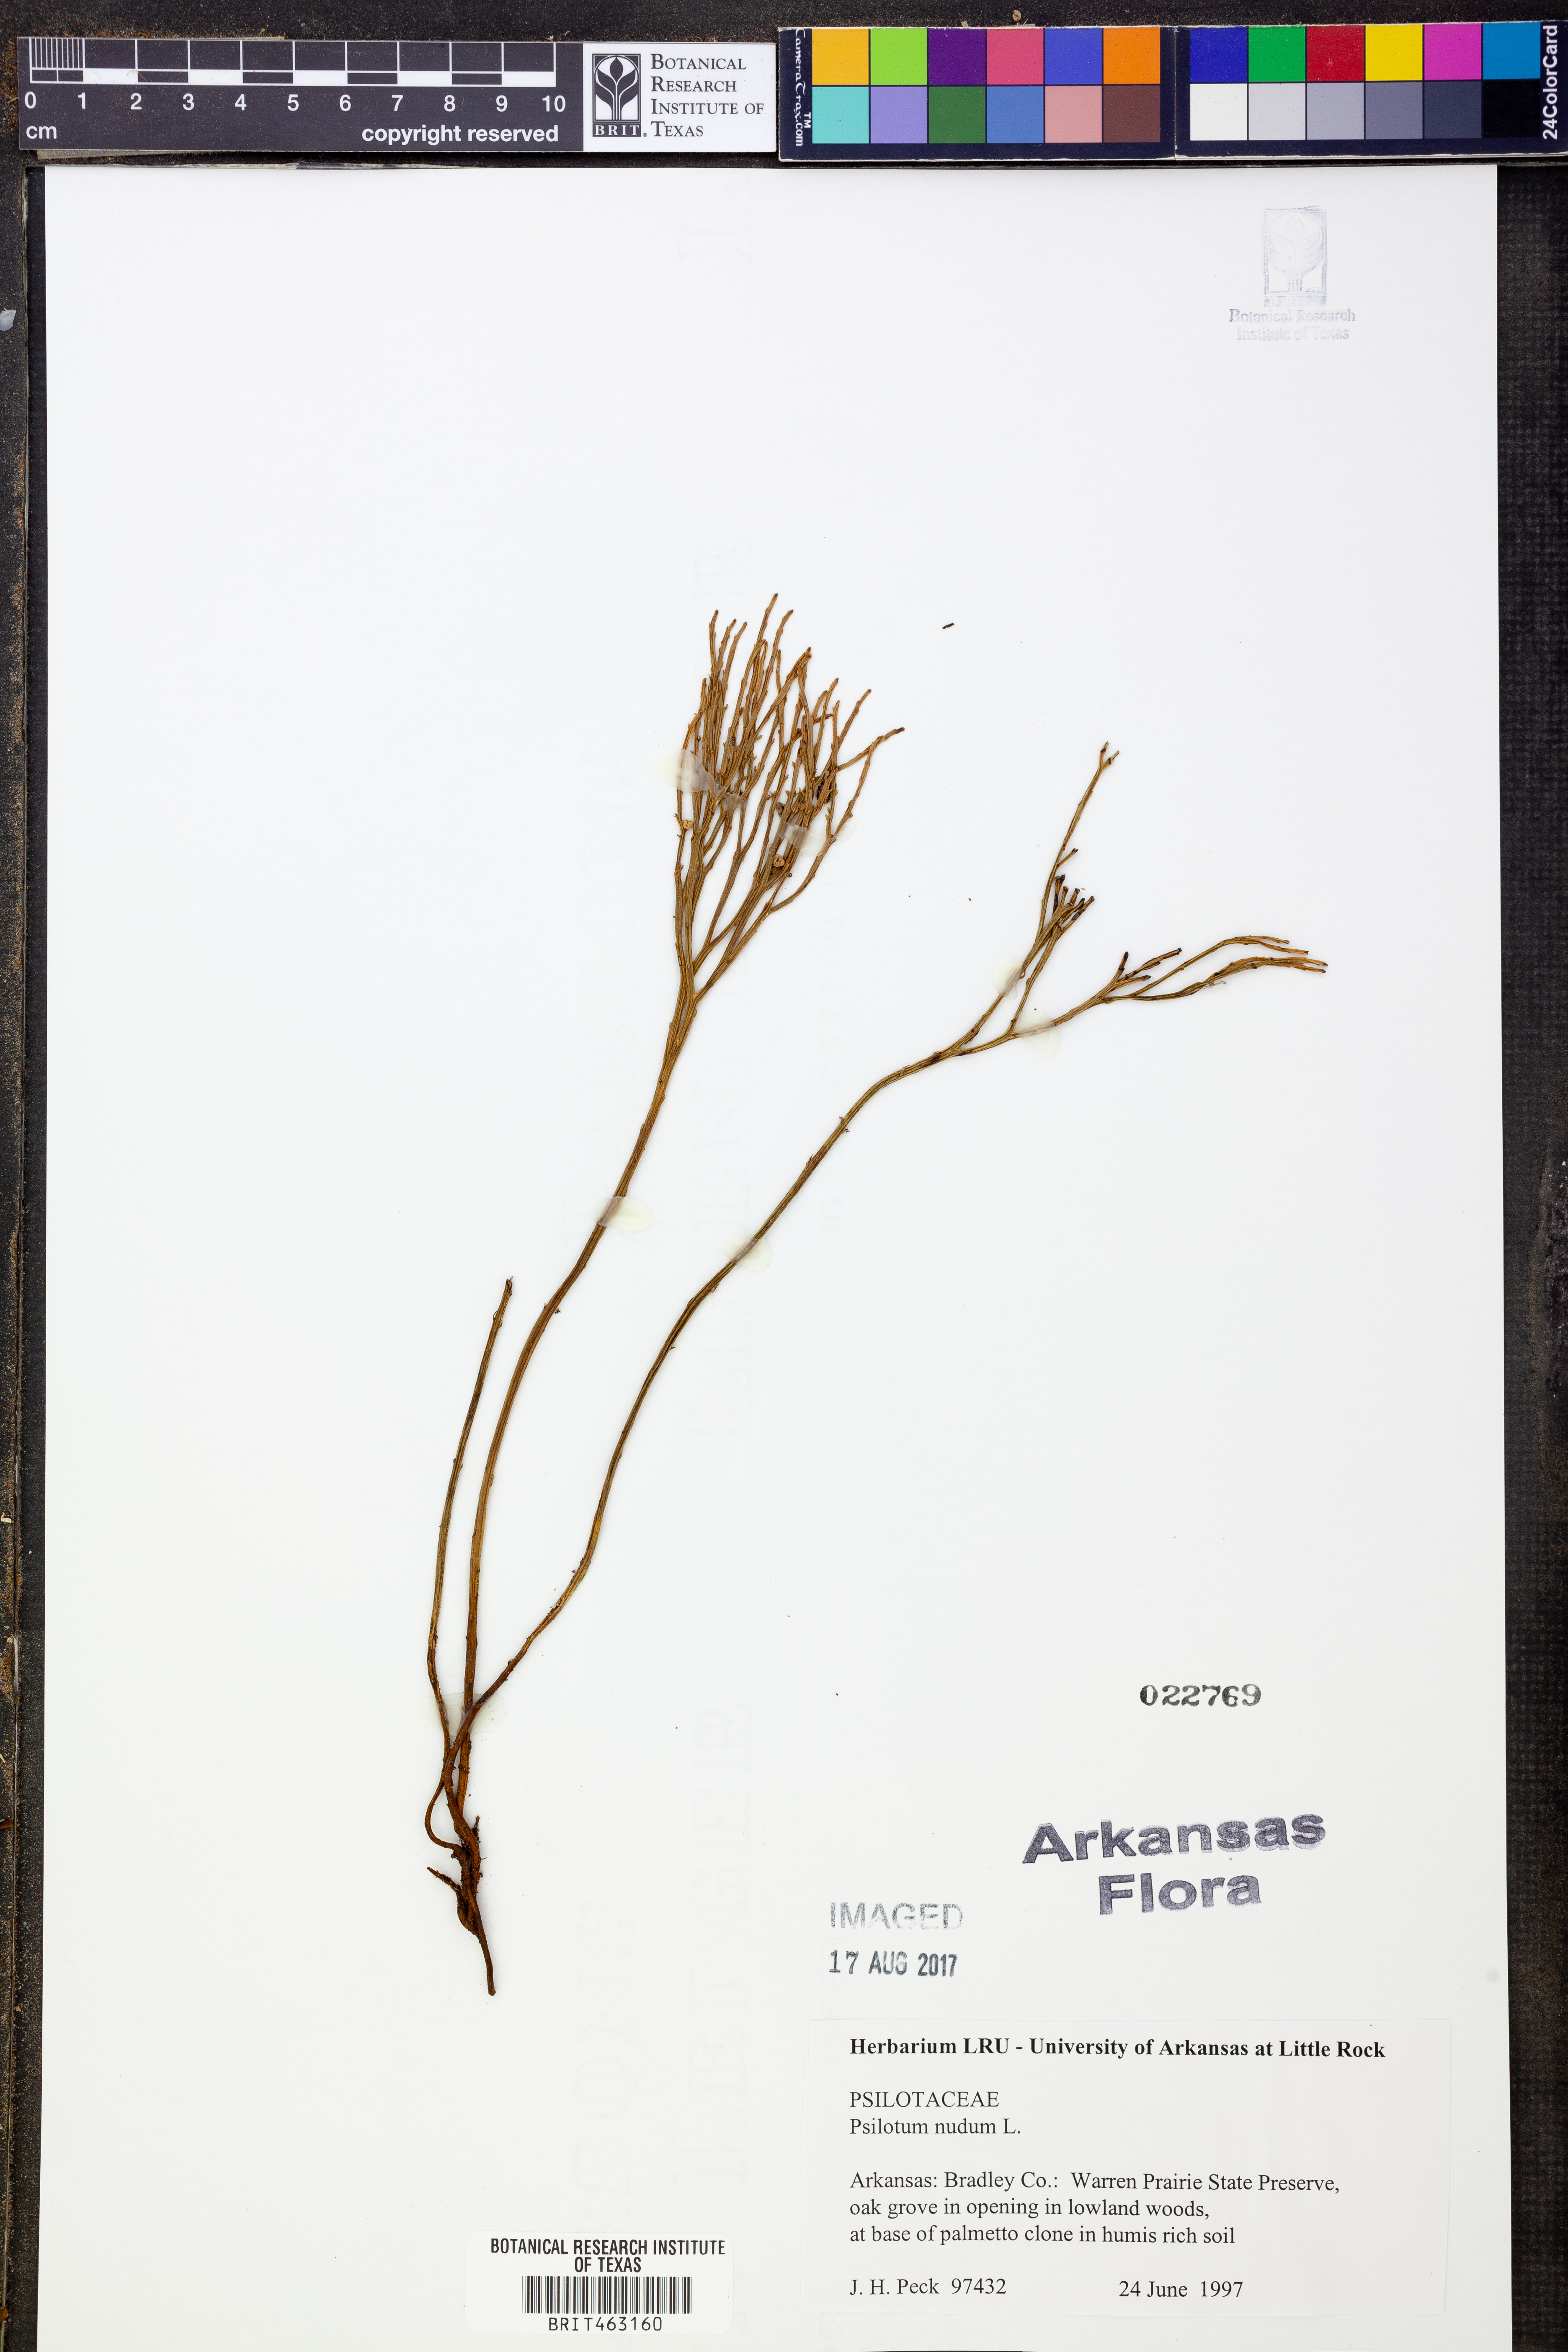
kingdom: Plantae
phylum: Tracheophyta
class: Polypodiopsida
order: Psilotales
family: Psilotaceae
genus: Psilotum
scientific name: Psilotum nudum
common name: Skeleton fork fern
